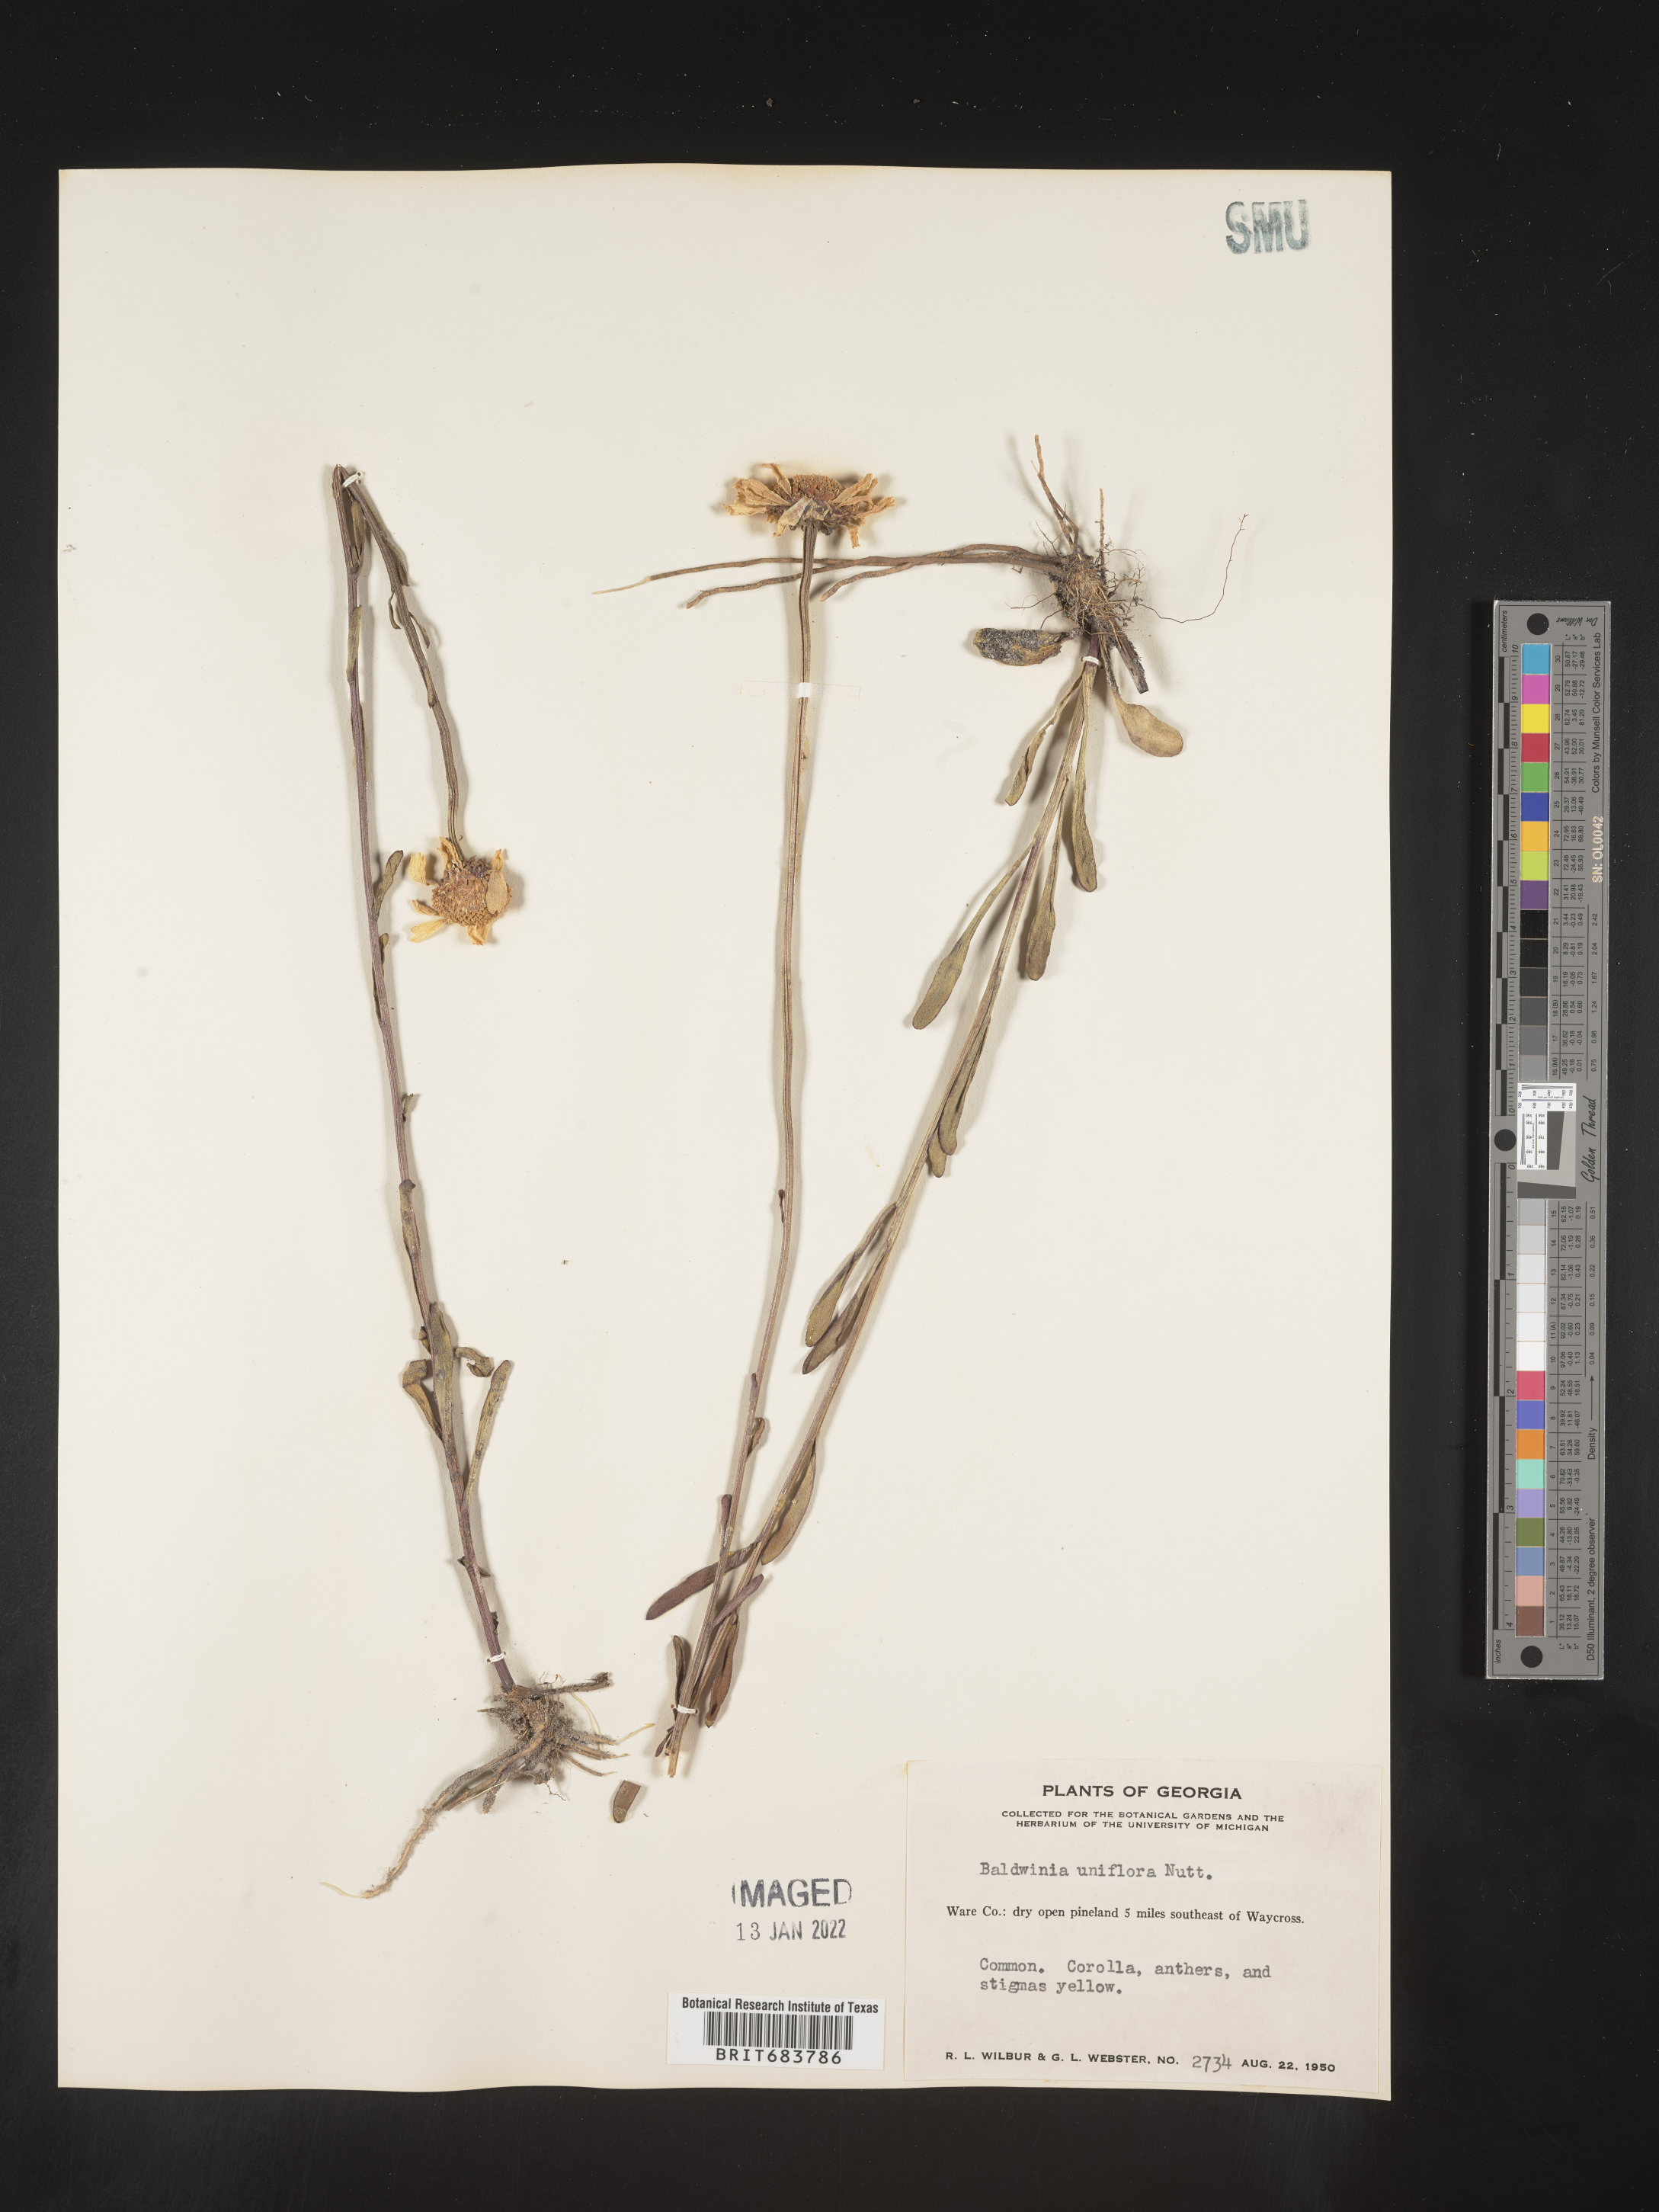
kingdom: Plantae
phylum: Tracheophyta
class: Magnoliopsida
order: Asterales
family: Asteraceae
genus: Balduina
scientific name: Balduina uniflora
